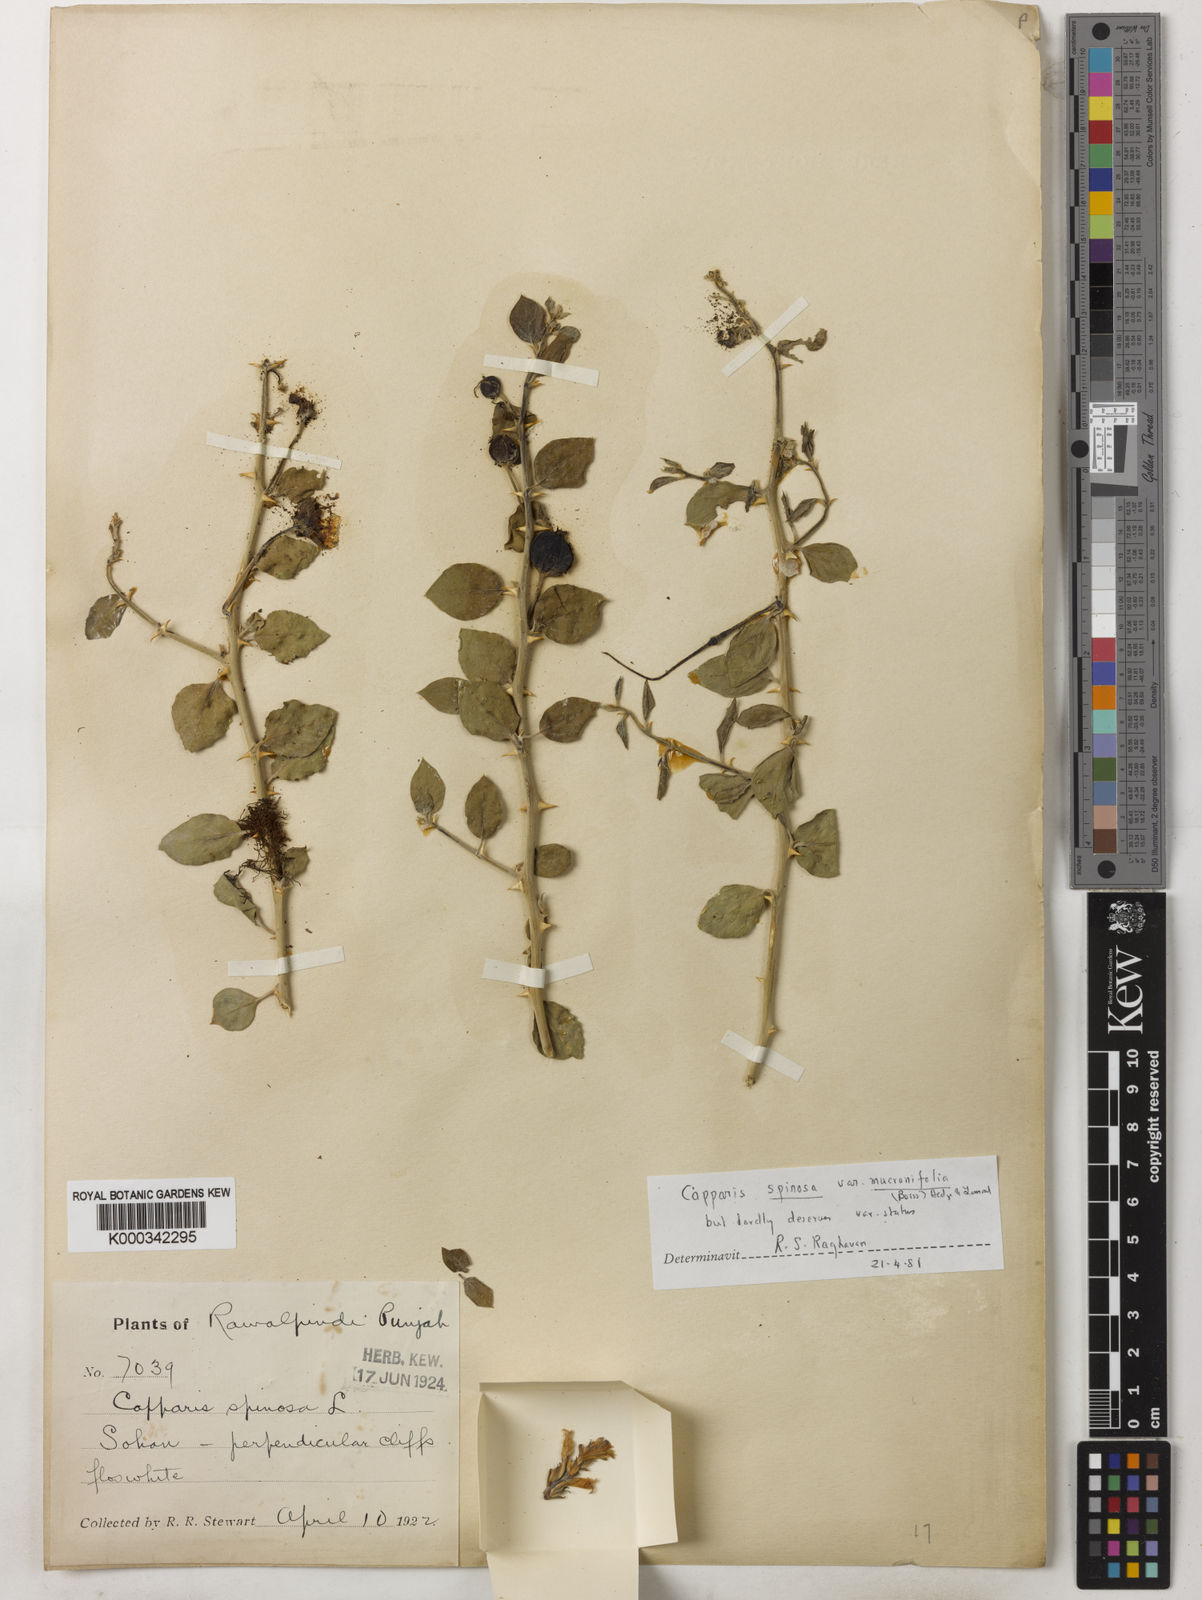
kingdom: Plantae
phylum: Tracheophyta
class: Magnoliopsida
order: Brassicales
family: Capparaceae
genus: Capparis
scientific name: Capparis spinosa
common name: Caper
